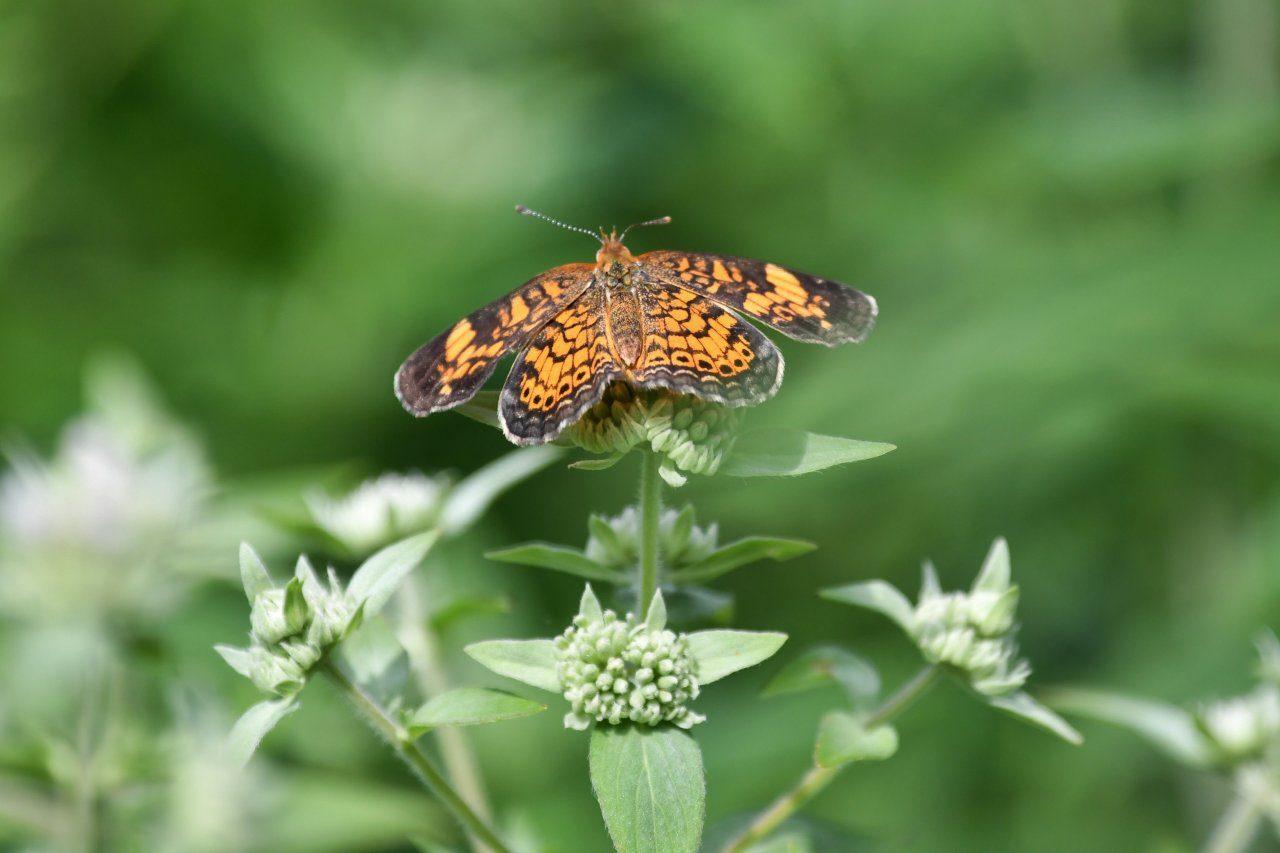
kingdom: Animalia
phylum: Arthropoda
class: Insecta
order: Lepidoptera
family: Nymphalidae
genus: Phyciodes
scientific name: Phyciodes tharos
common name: Pearl Crescent
